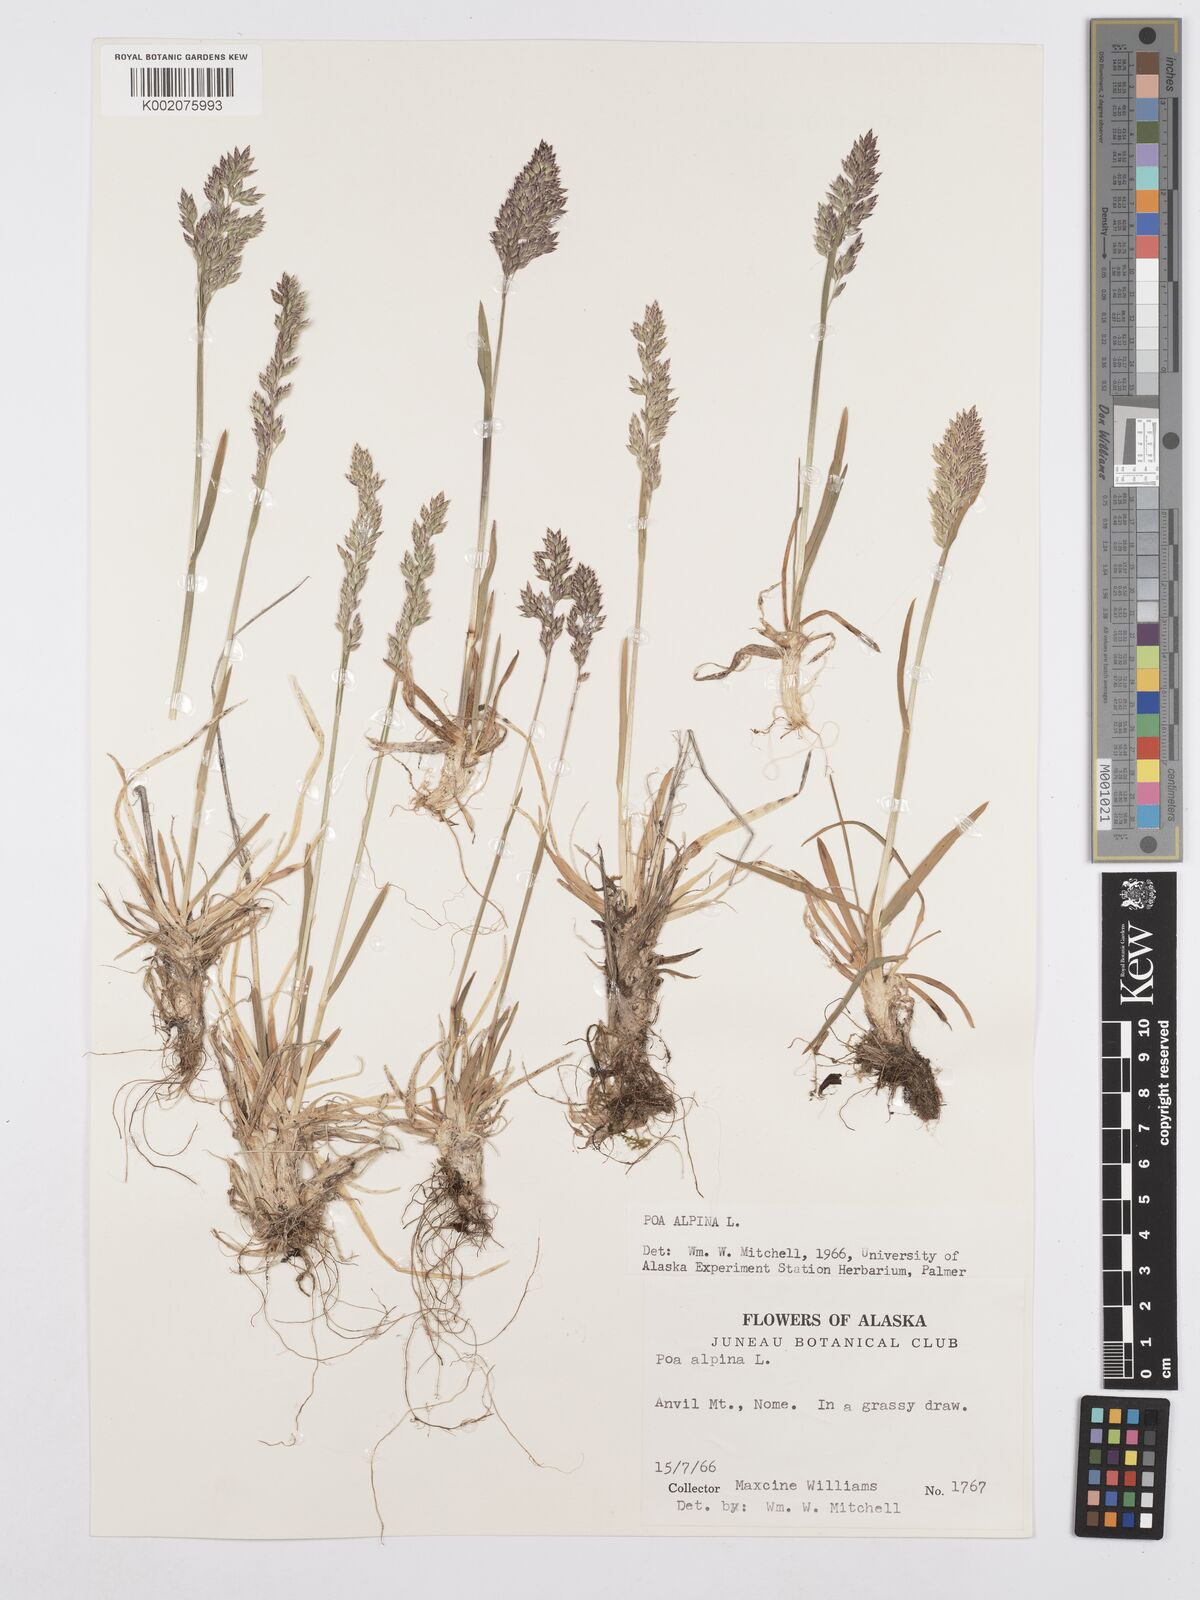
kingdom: Plantae
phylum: Tracheophyta
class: Liliopsida
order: Poales
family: Poaceae
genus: Poa
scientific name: Poa alpina
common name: Alpine bluegrass
